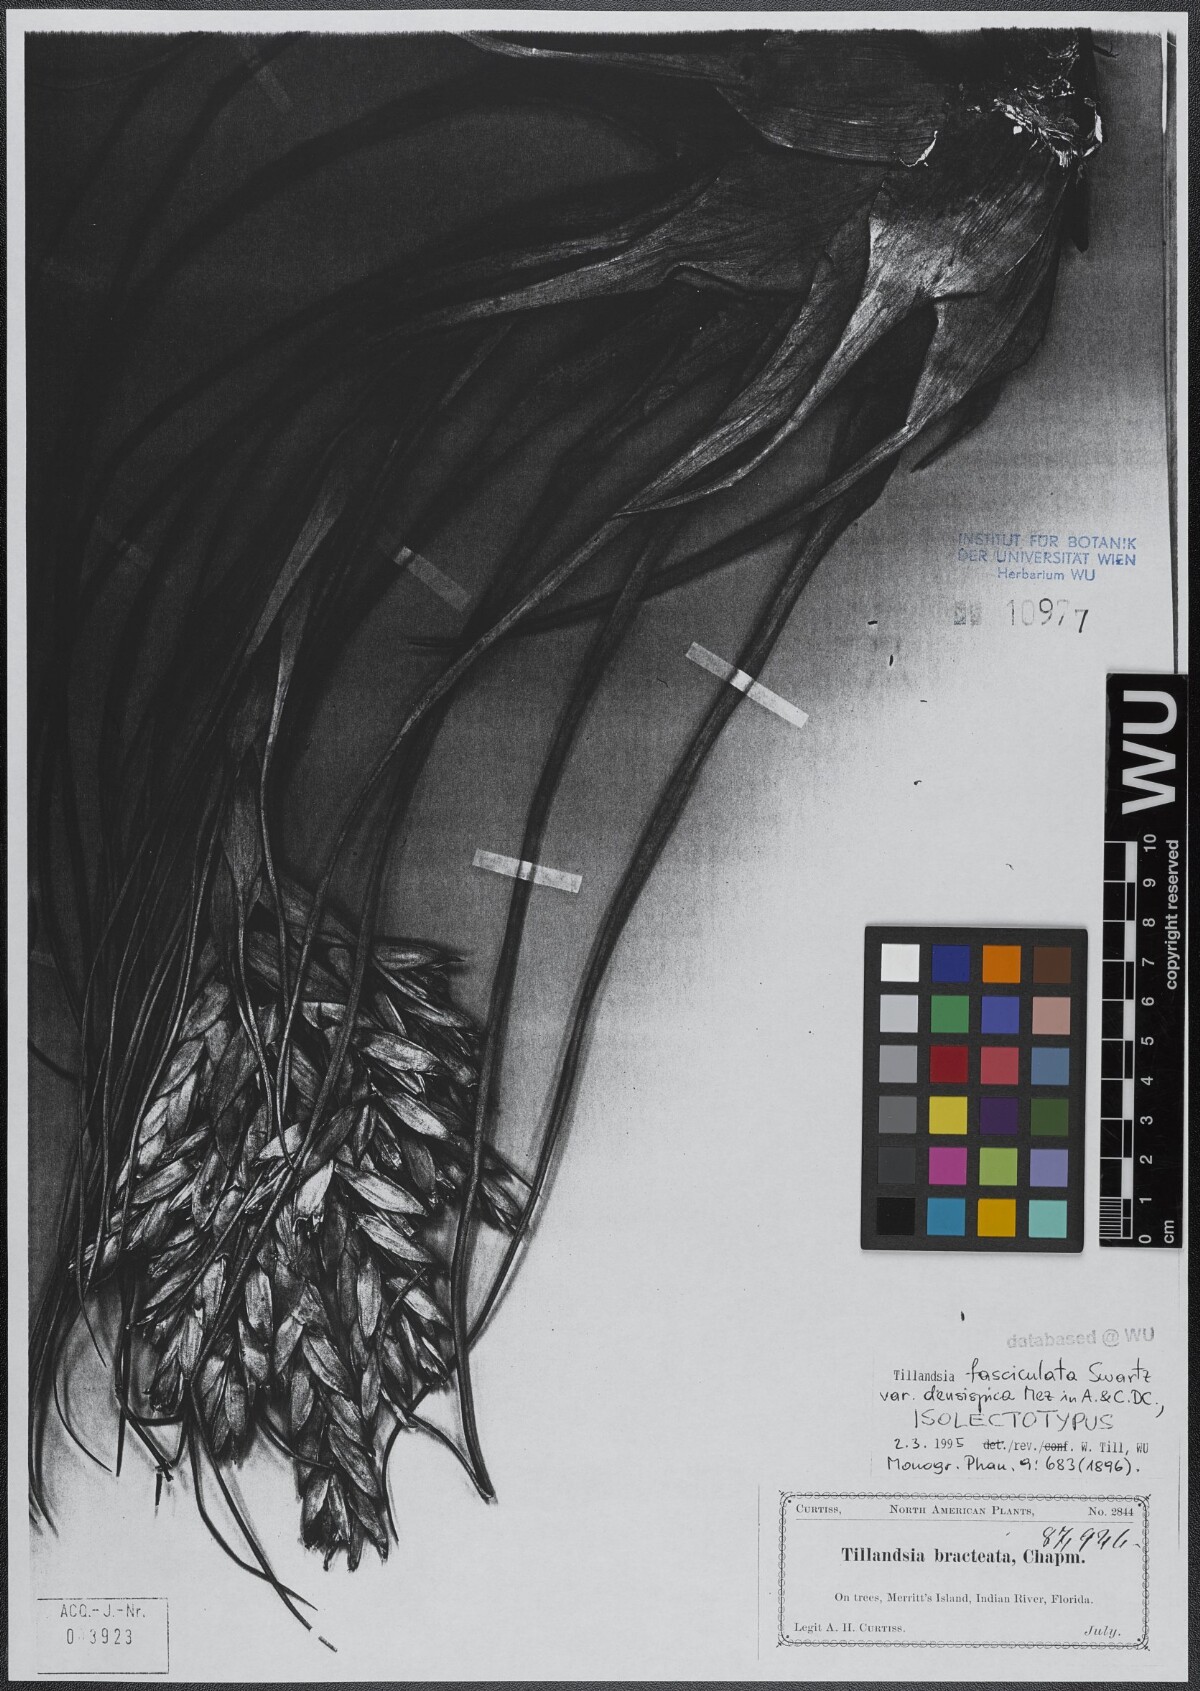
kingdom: Plantae
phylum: Tracheophyta
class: Liliopsida
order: Poales
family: Bromeliaceae
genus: Tillandsia
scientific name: Tillandsia fasciculata
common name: Giant airplant
